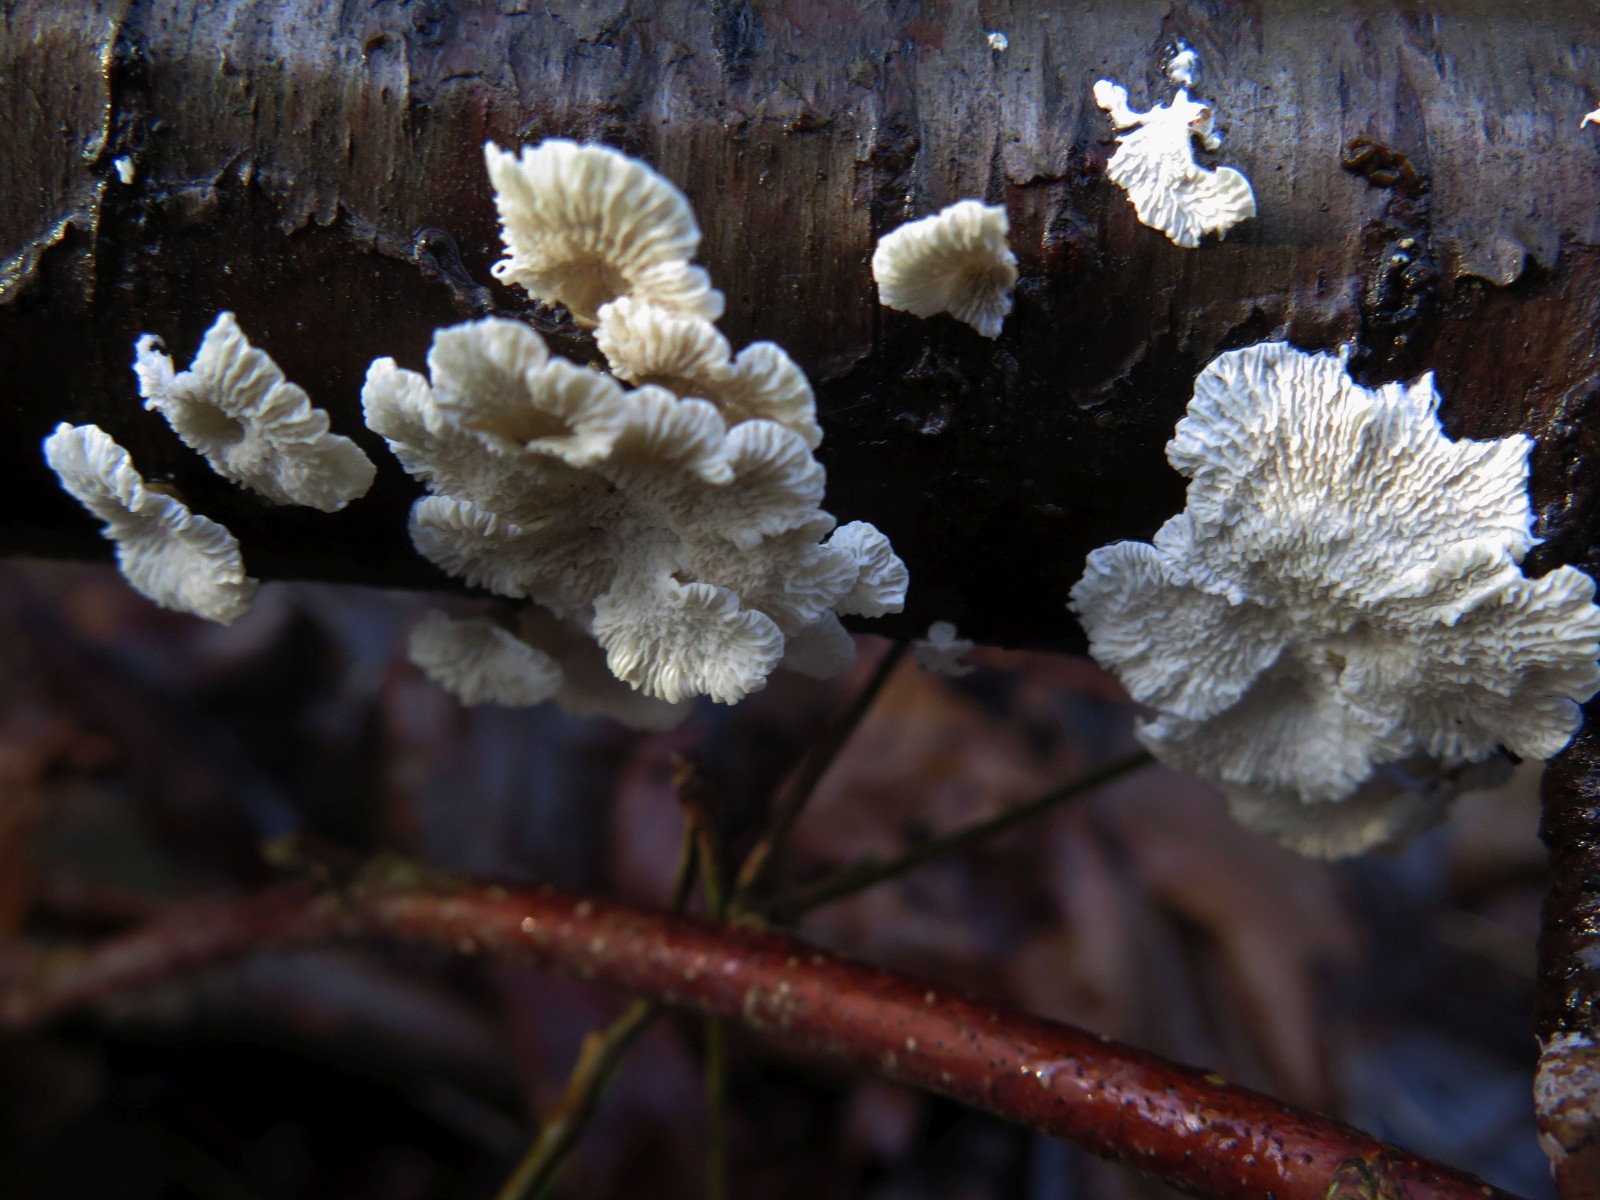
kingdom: Fungi
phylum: Basidiomycota
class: Agaricomycetes
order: Amylocorticiales
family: Amylocorticiaceae
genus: Plicaturopsis
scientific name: Plicaturopsis crispa
